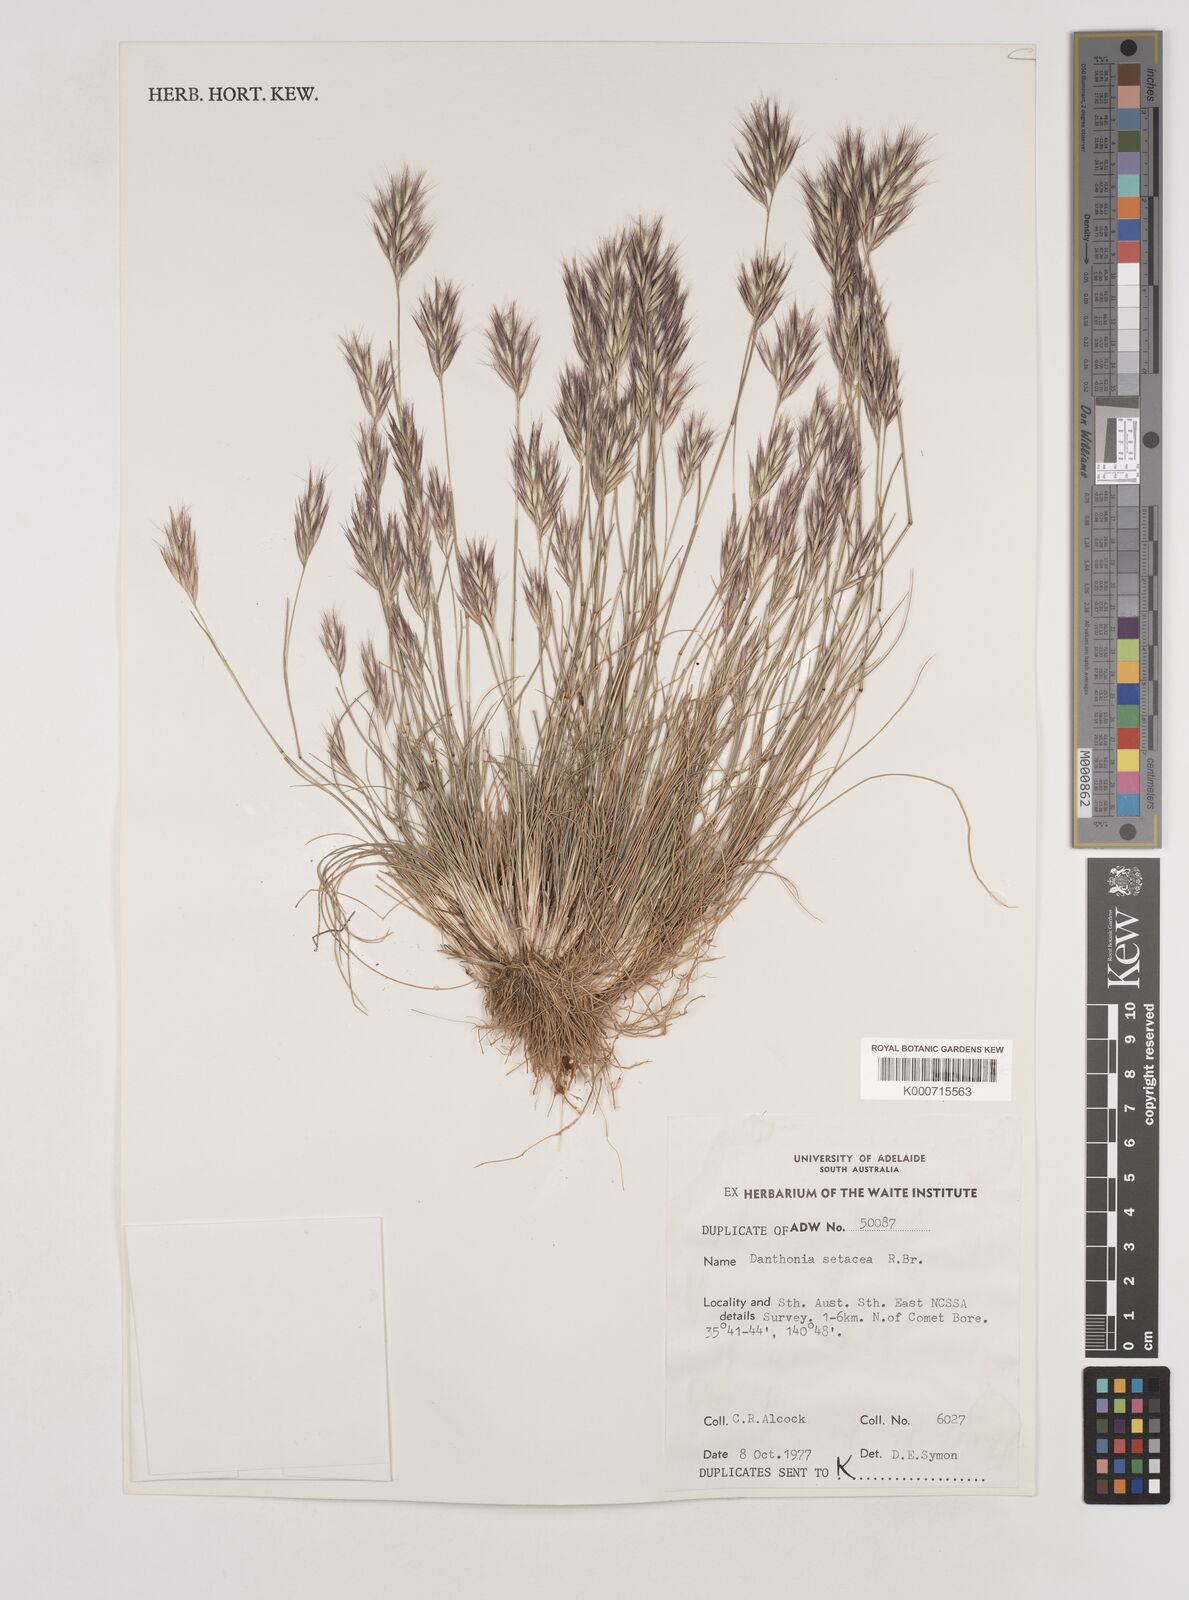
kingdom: Plantae
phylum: Tracheophyta
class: Liliopsida
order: Poales
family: Poaceae
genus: Rytidosperma
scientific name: Rytidosperma setaceum
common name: Small-flower wallaby grass
